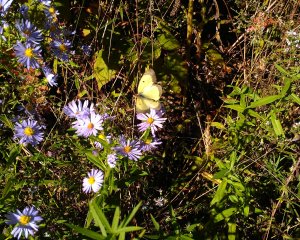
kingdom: Animalia
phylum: Arthropoda
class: Insecta
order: Lepidoptera
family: Pieridae
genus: Colias
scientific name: Colias philodice
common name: Clouded Sulphur
